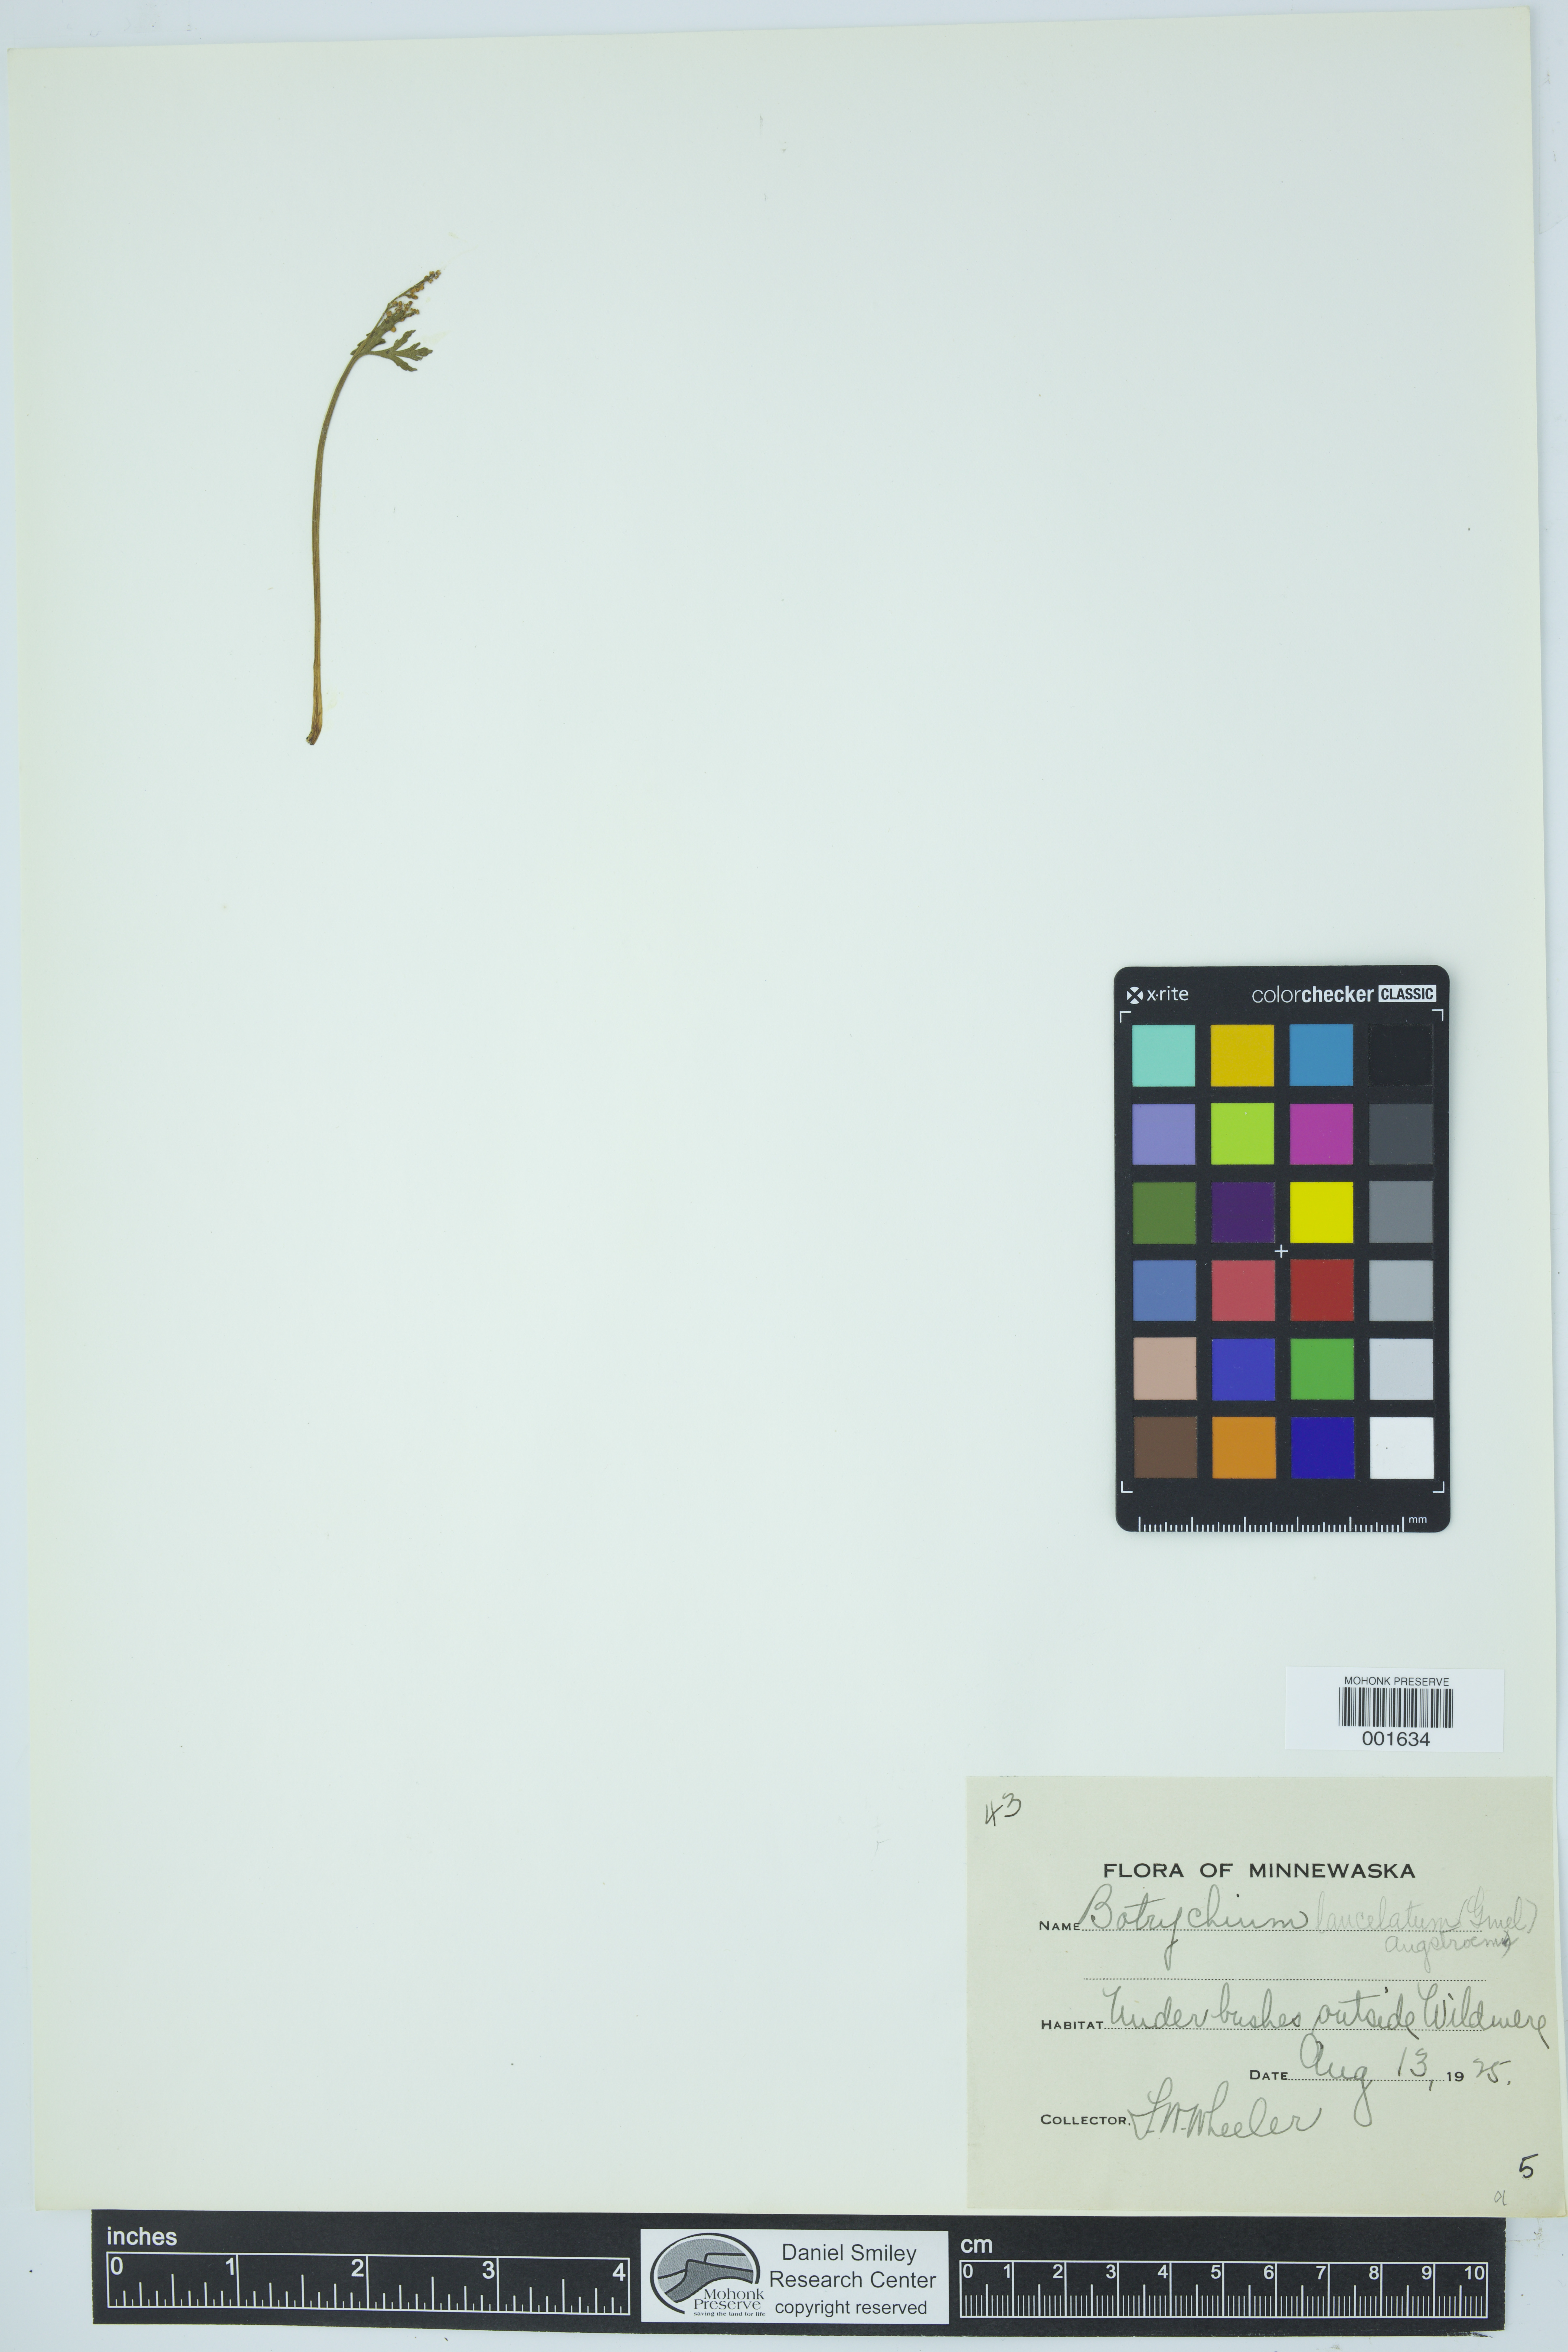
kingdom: Plantae
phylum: Tracheophyta
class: Polypodiopsida
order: Ophioglossales
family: Ophioglossaceae
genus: Botrychium
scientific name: Botrychium lanceolatum
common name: Lance-leaved moonwort
